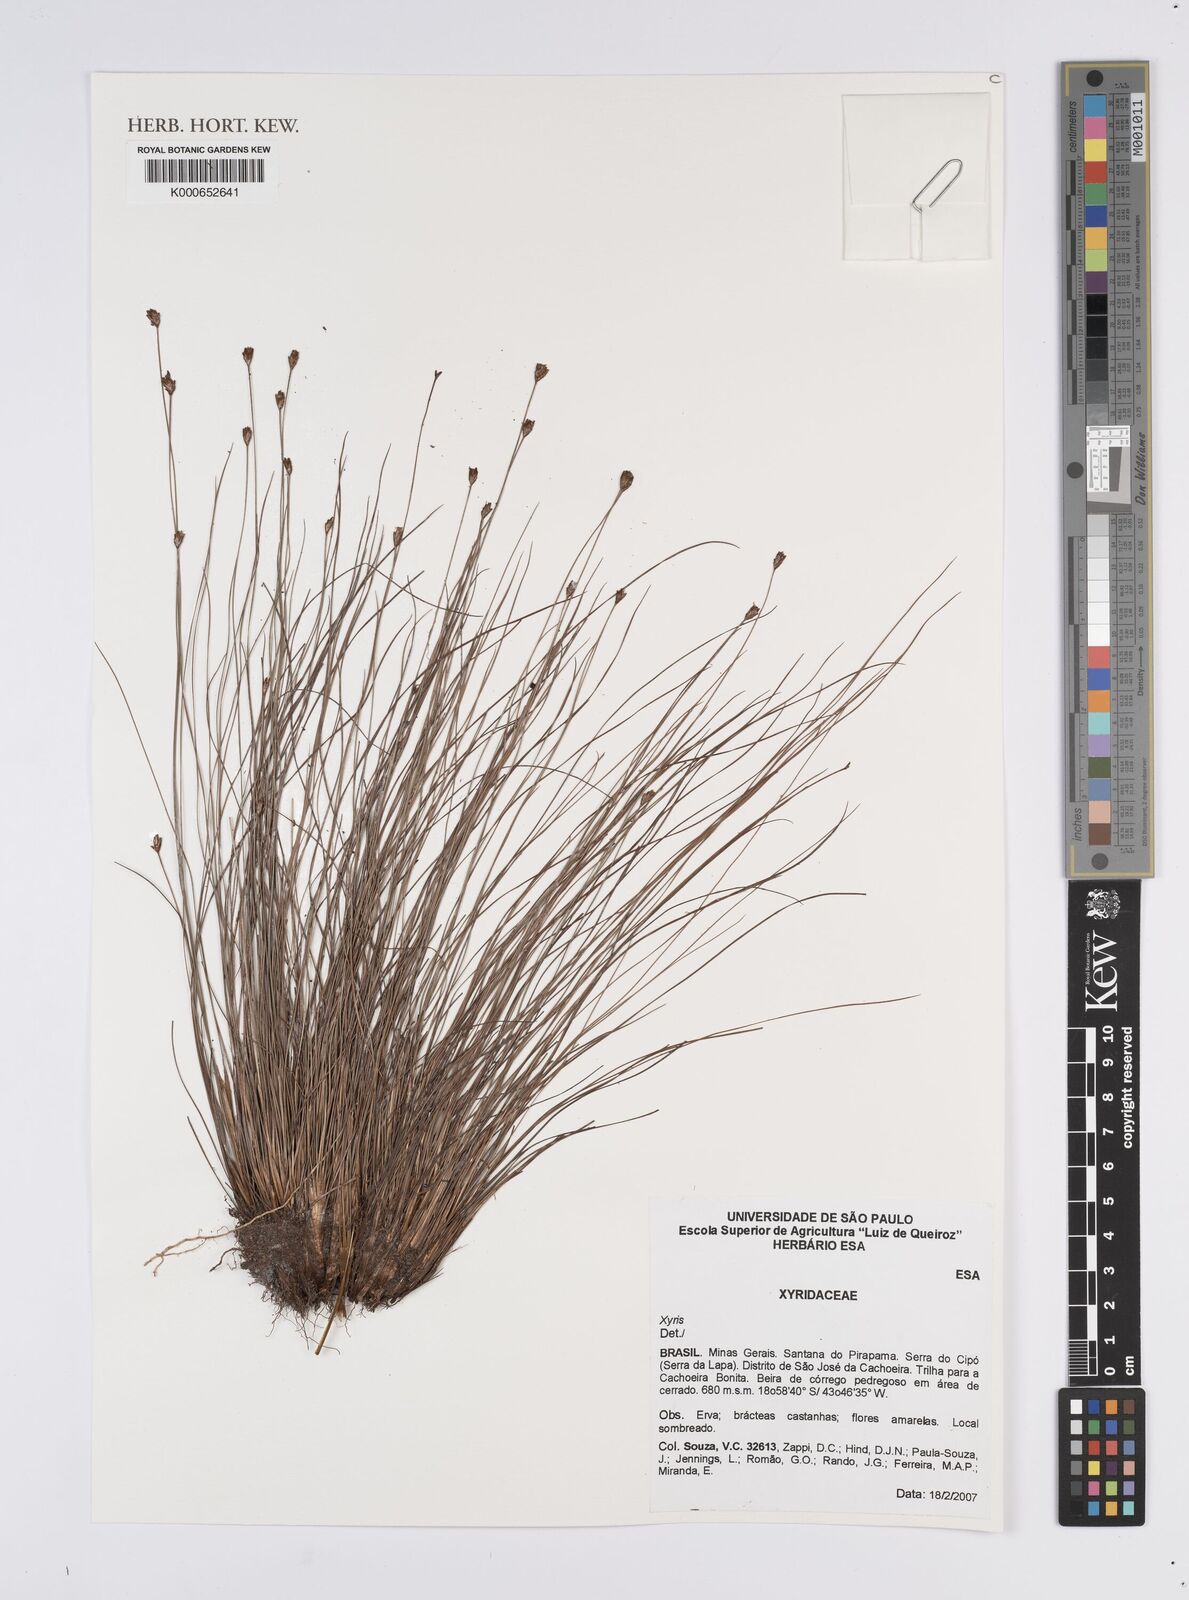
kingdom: Plantae
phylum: Tracheophyta
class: Liliopsida
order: Poales
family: Xyridaceae
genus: Xyris
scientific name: Xyris
